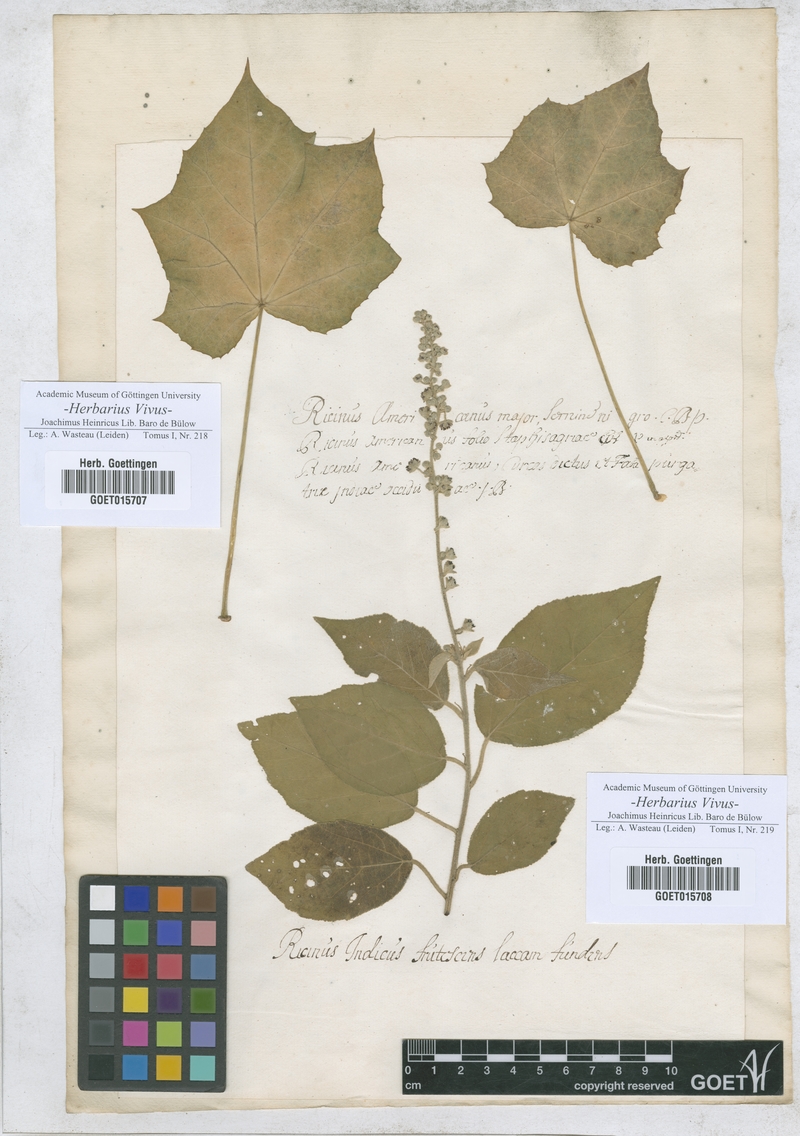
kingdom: Plantae
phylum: Tracheophyta
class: Magnoliopsida
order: Malpighiales
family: Euphorbiaceae
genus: Jatropha
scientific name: Jatropha curcas
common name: Barbados nut
